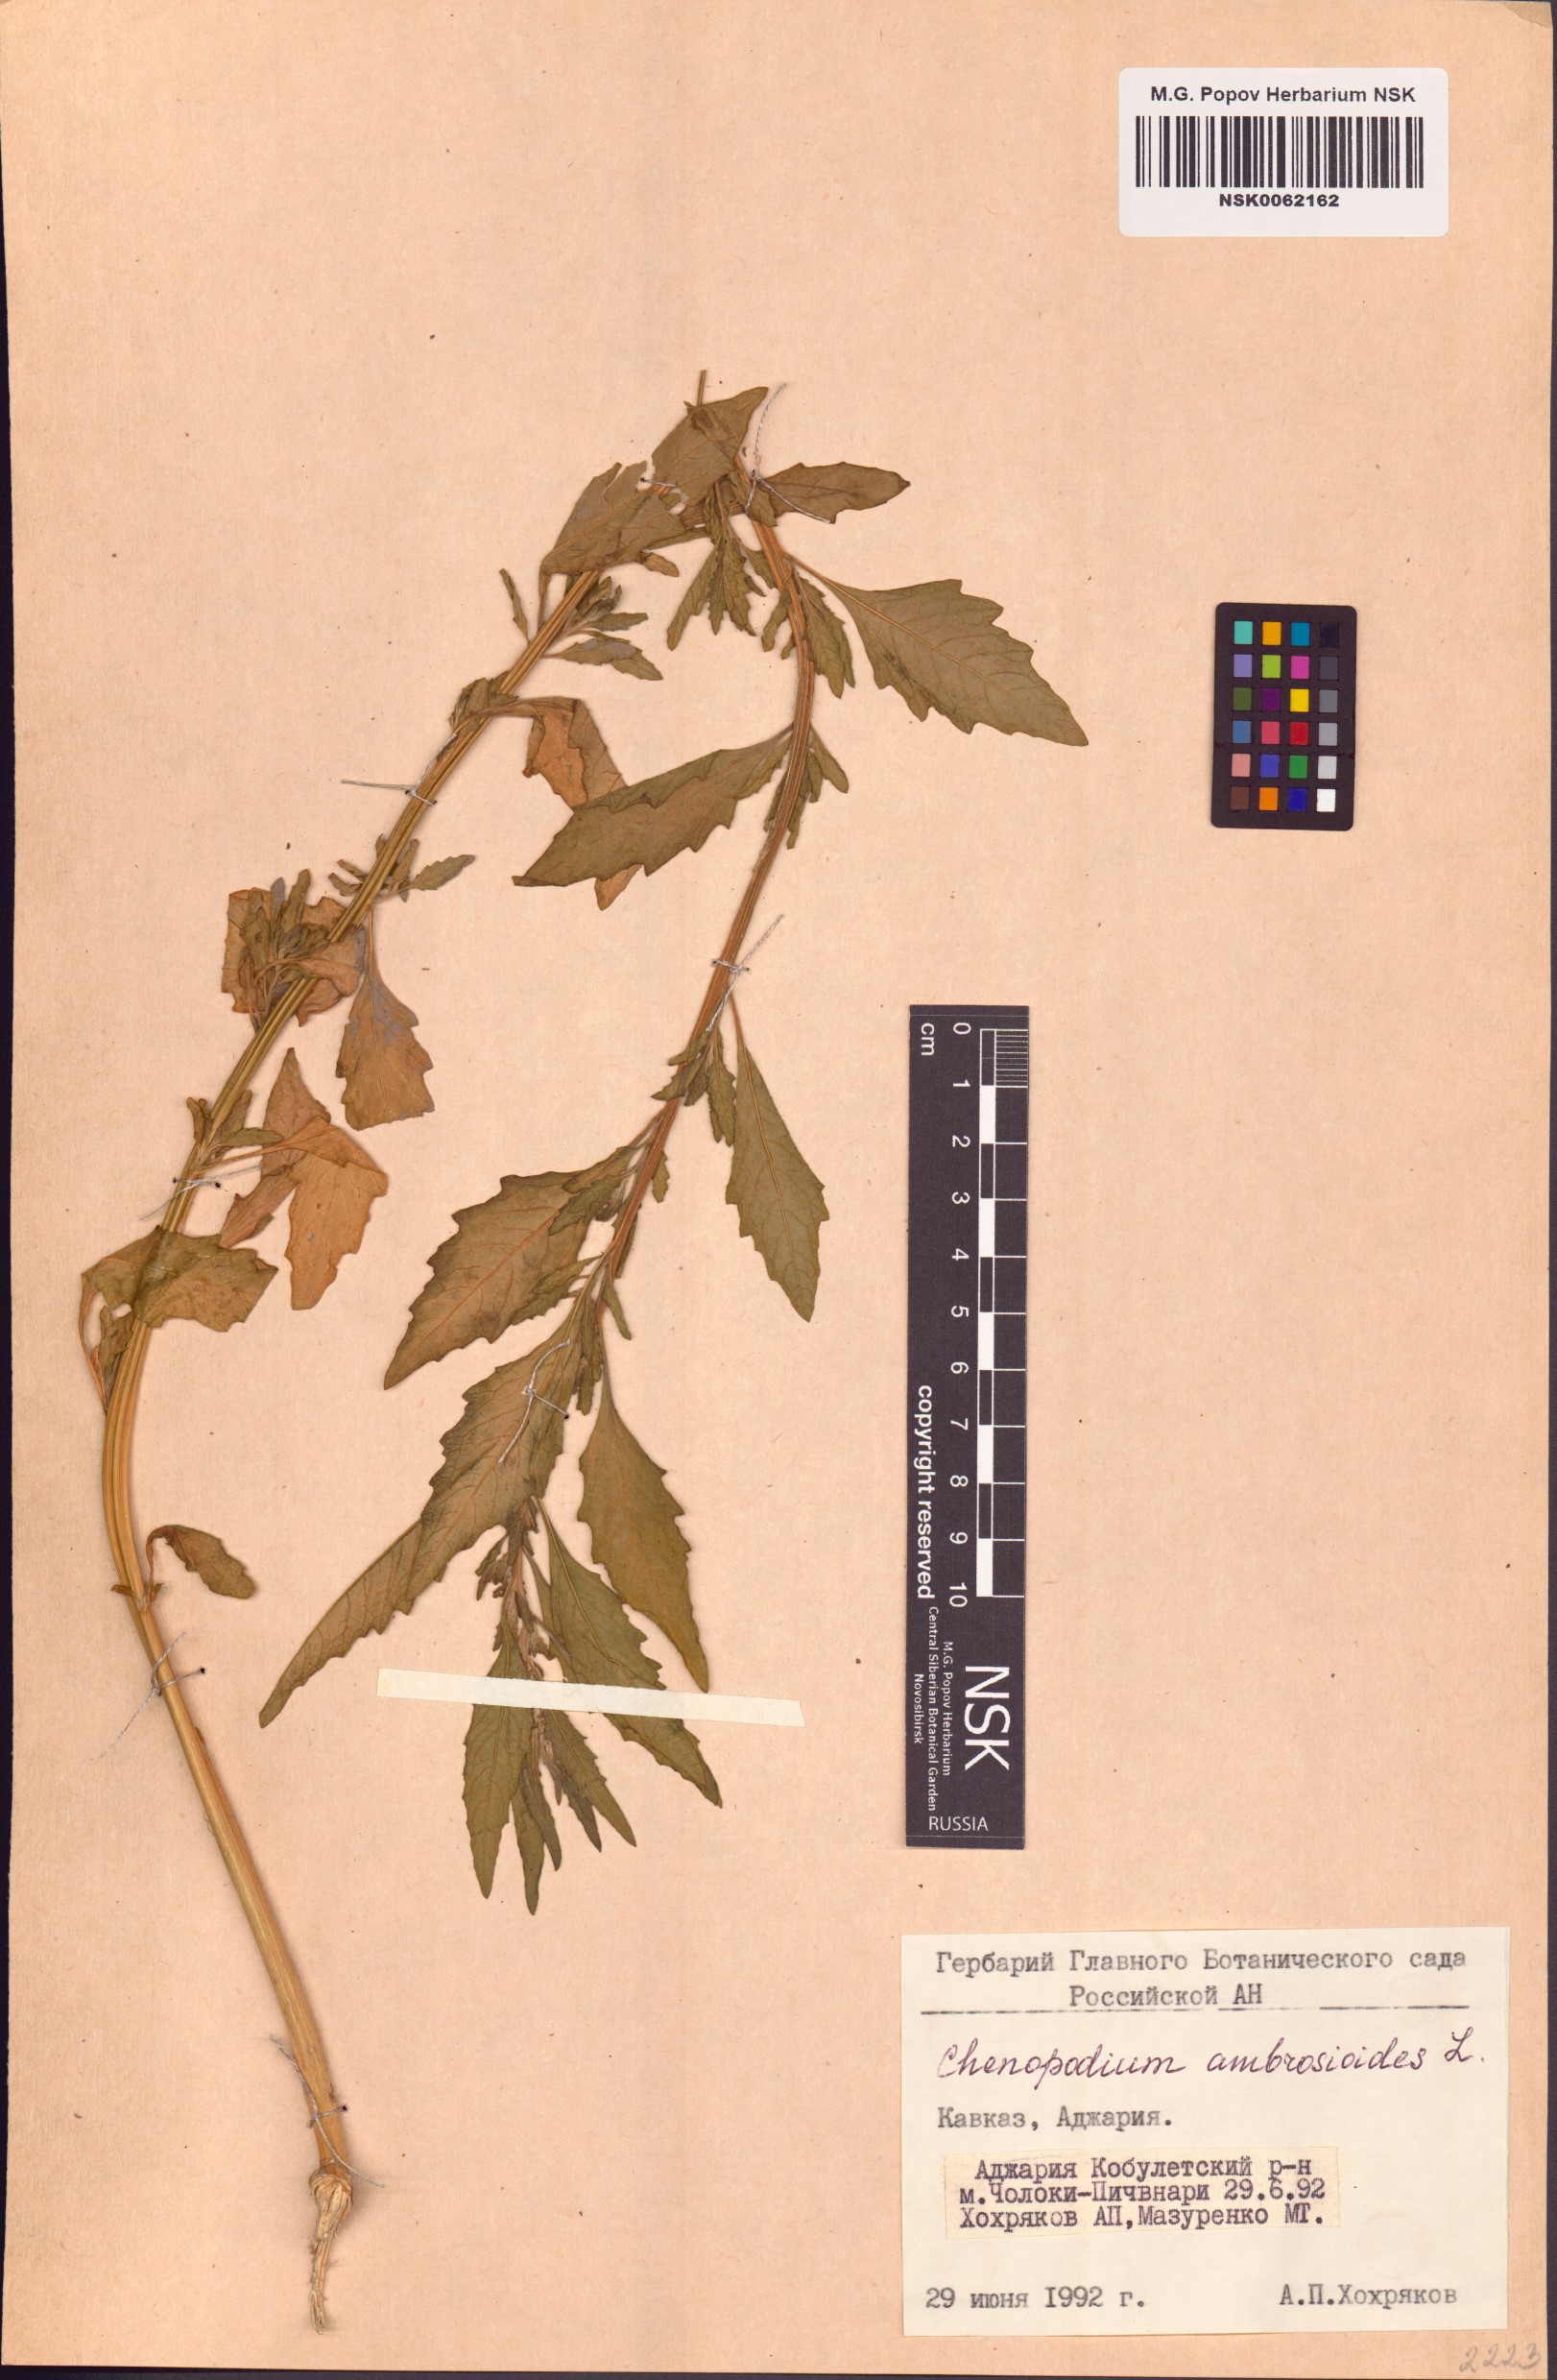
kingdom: Plantae
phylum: Tracheophyta
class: Magnoliopsida
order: Caryophyllales
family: Amaranthaceae
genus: Dysphania
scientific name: Dysphania ambrosioides
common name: Wormseed
